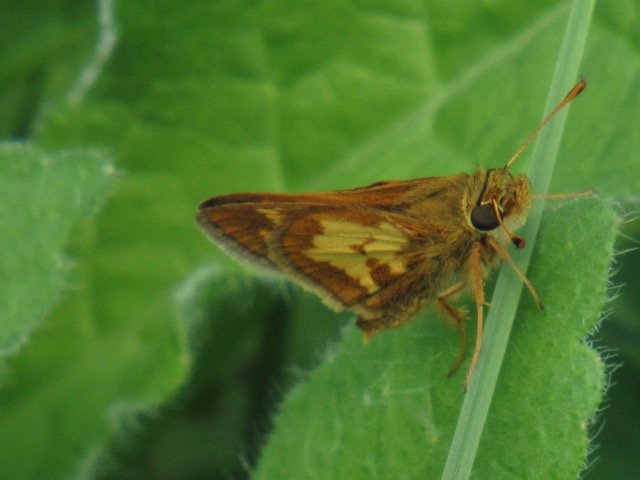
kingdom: Animalia
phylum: Arthropoda
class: Insecta
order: Lepidoptera
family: Hesperiidae
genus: Polites
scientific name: Polites coras
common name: Peck's Skipper
